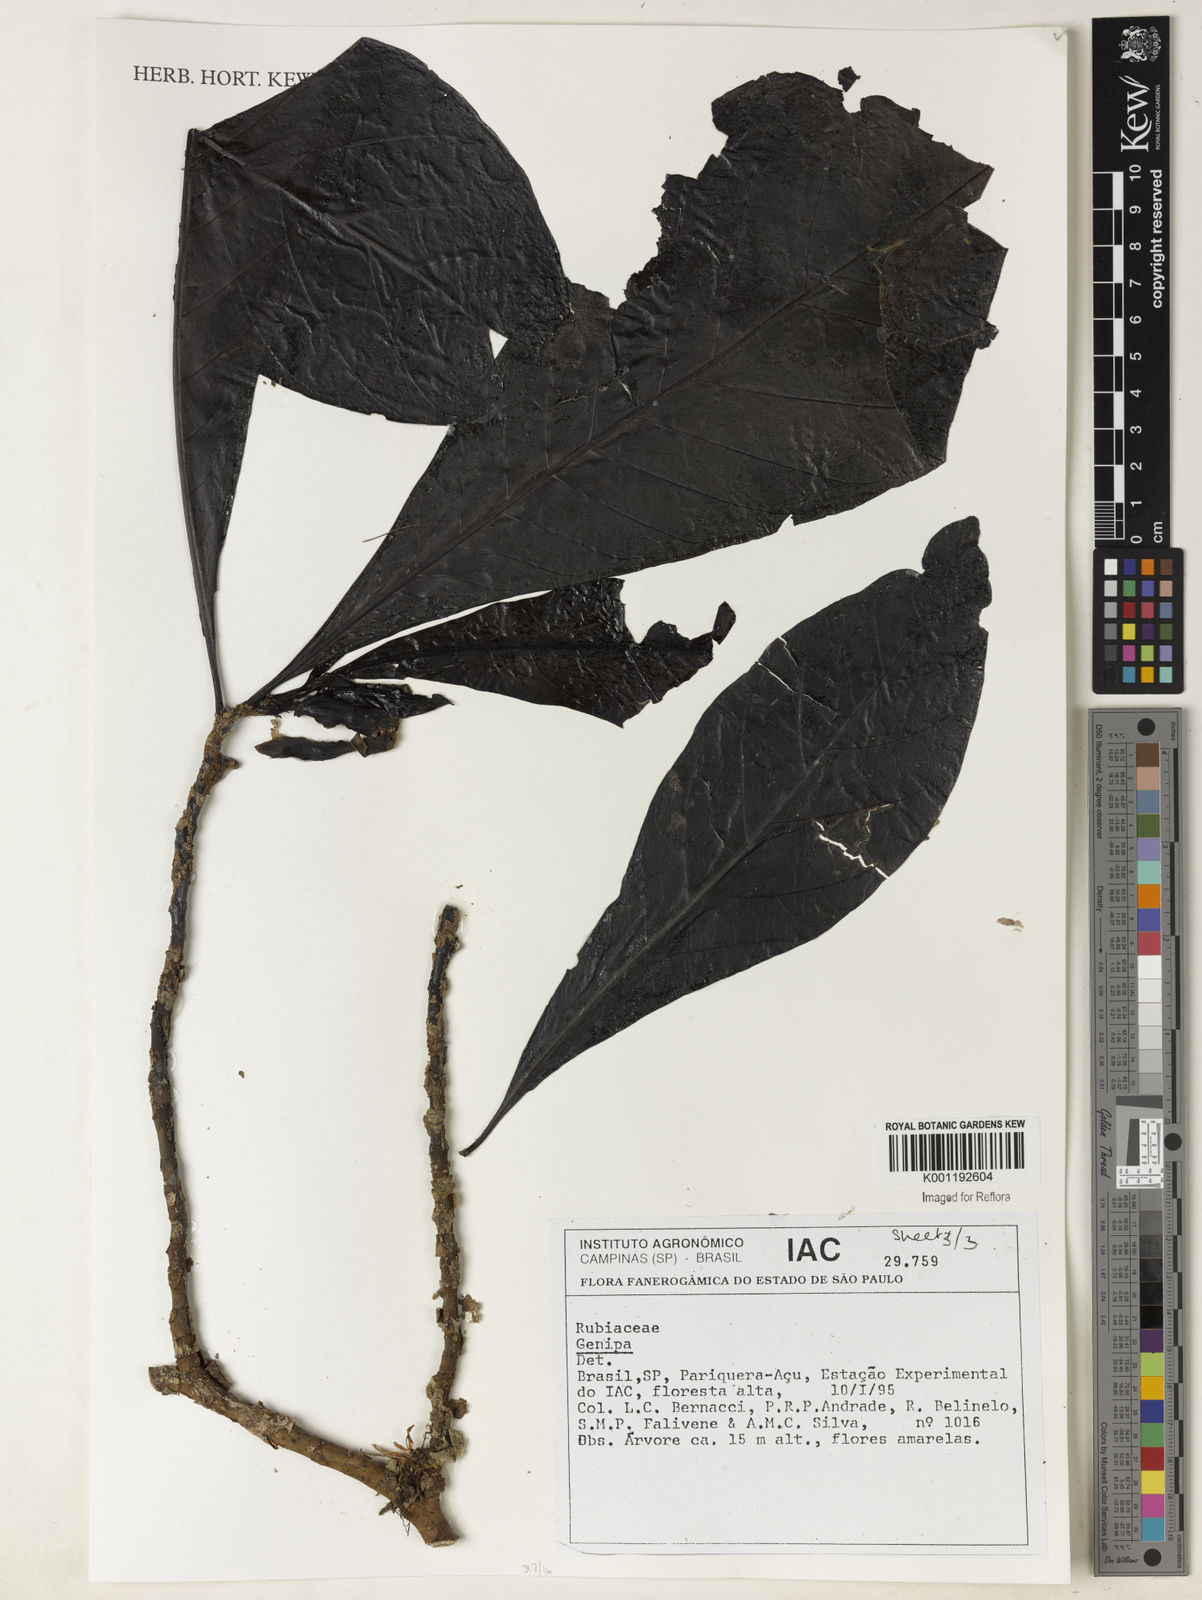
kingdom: Plantae
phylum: Tracheophyta
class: Magnoliopsida
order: Gentianales
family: Rubiaceae
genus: Genipa
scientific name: Genipa
